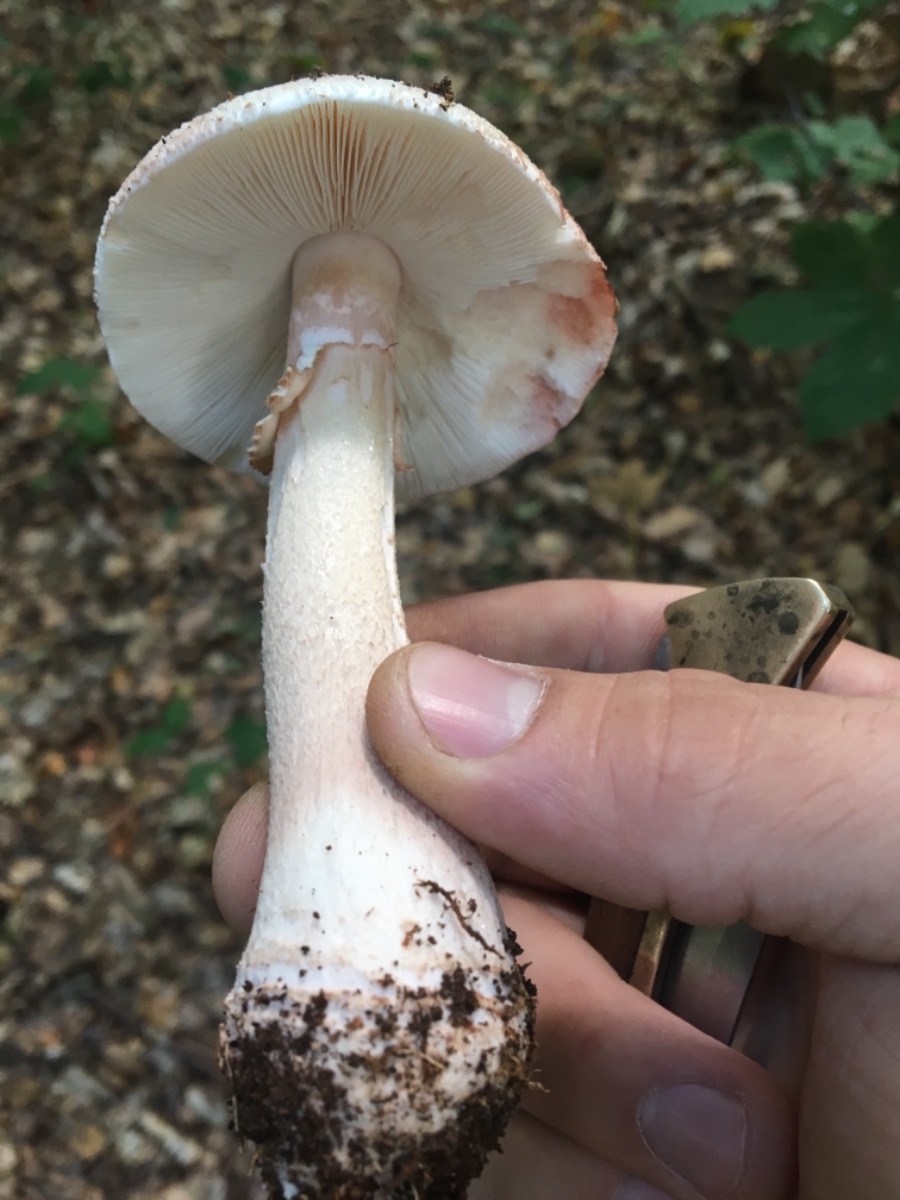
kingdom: Fungi
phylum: Basidiomycota
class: Agaricomycetes
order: Agaricales
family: Amanitaceae
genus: Amanita
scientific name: Amanita rubescens
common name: rødmende fluesvamp
